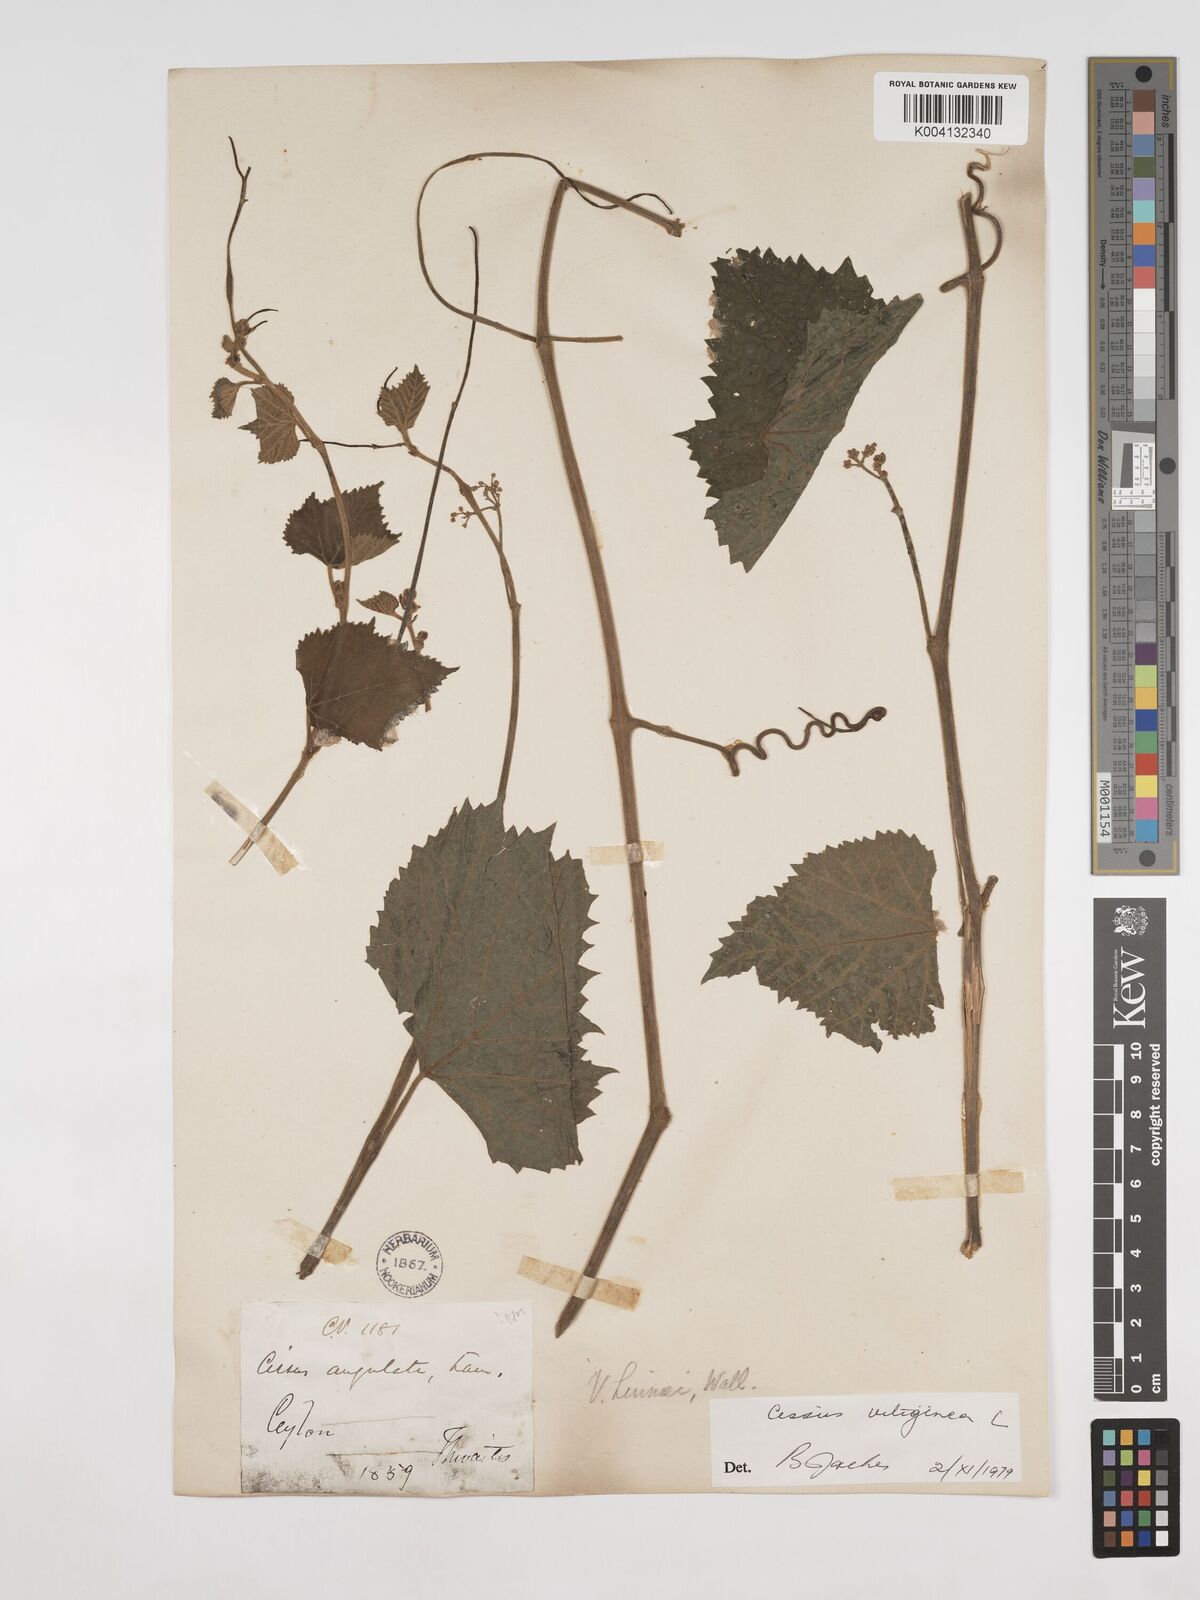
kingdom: Plantae
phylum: Tracheophyta
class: Magnoliopsida
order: Vitales
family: Vitaceae
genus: Cissus
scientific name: Cissus vitiginea
